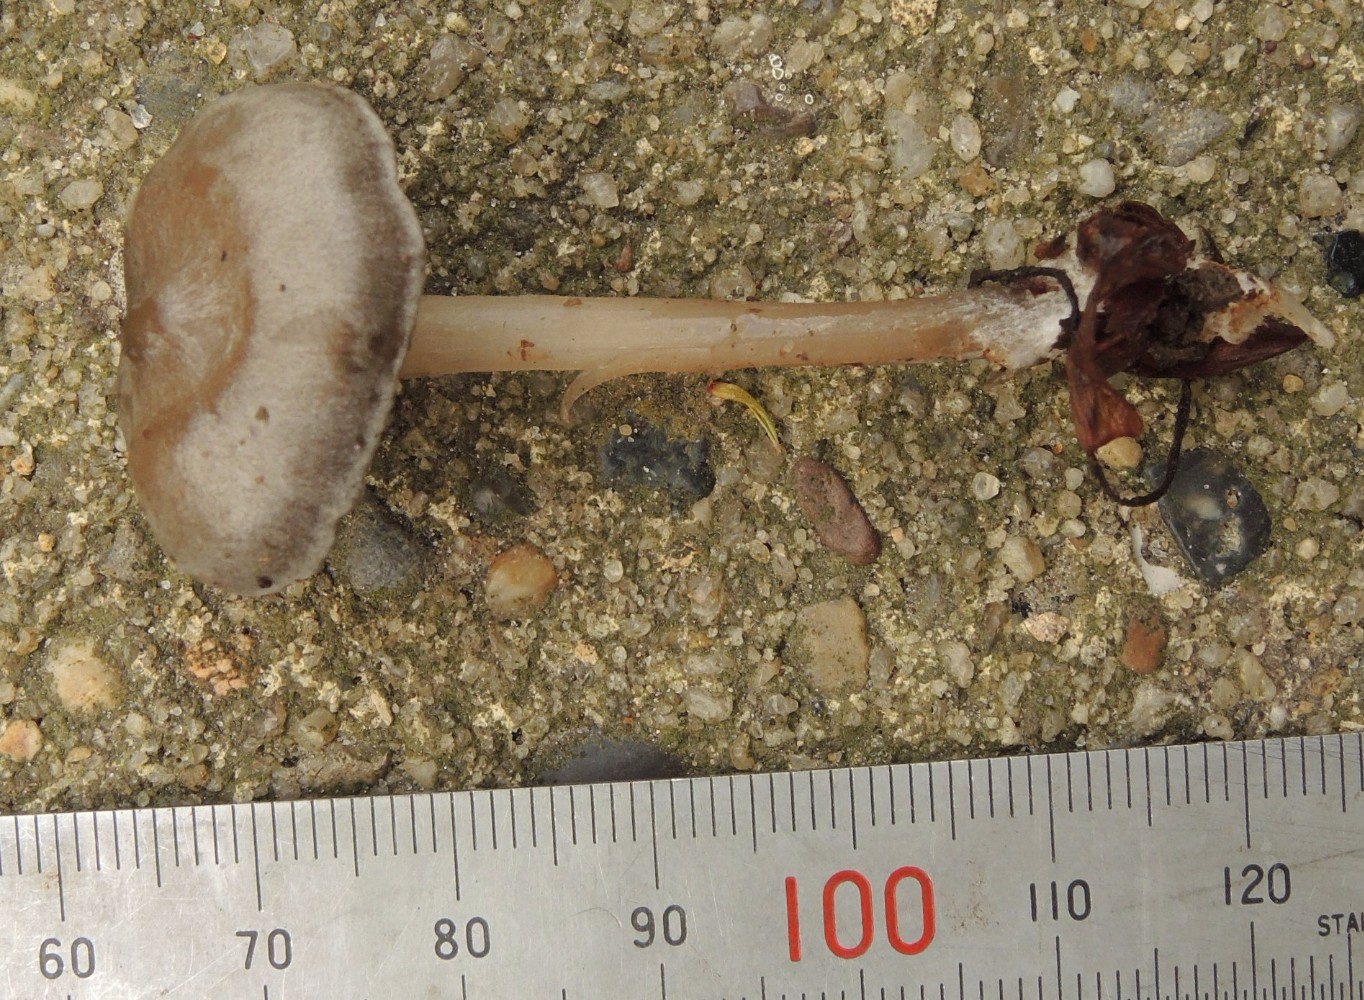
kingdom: Fungi
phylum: Basidiomycota
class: Agaricomycetes
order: Agaricales
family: Lyophyllaceae
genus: Tephrocybe
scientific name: Tephrocybe rancida
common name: mel-gråblad
